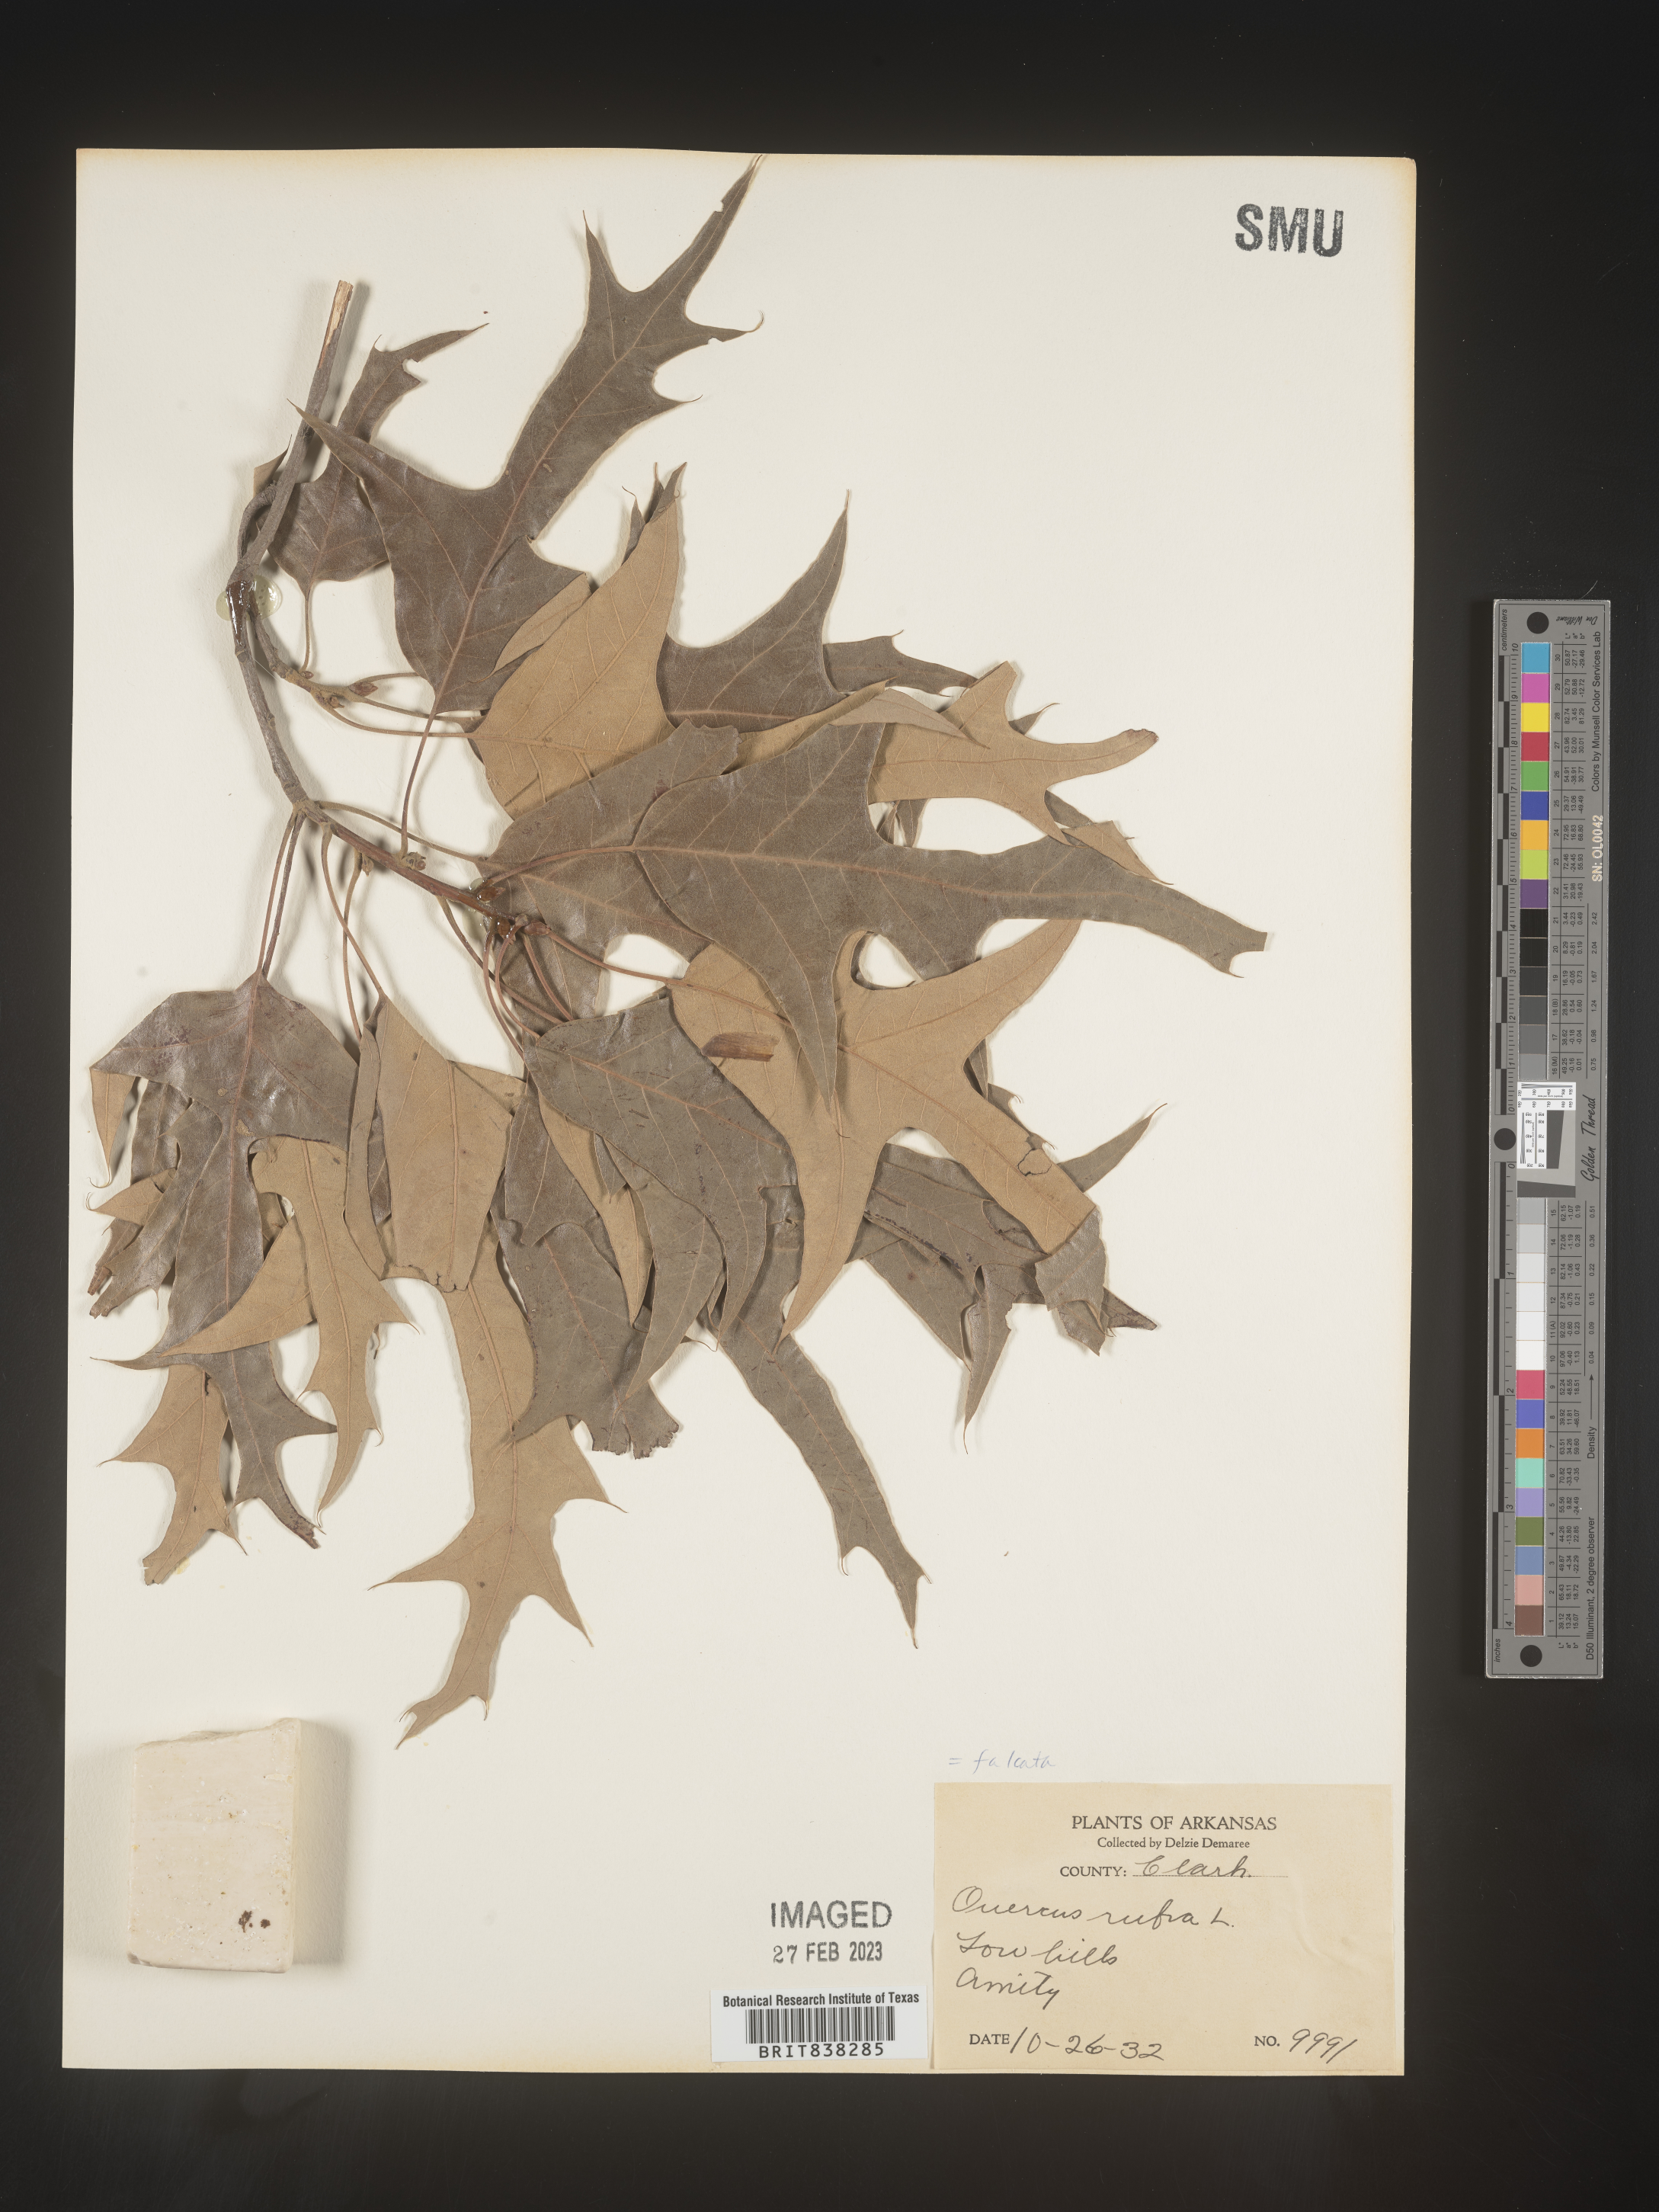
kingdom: Plantae
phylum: Tracheophyta
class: Magnoliopsida
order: Fagales
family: Fagaceae
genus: Quercus
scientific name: Quercus falcata
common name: Southern red oak
